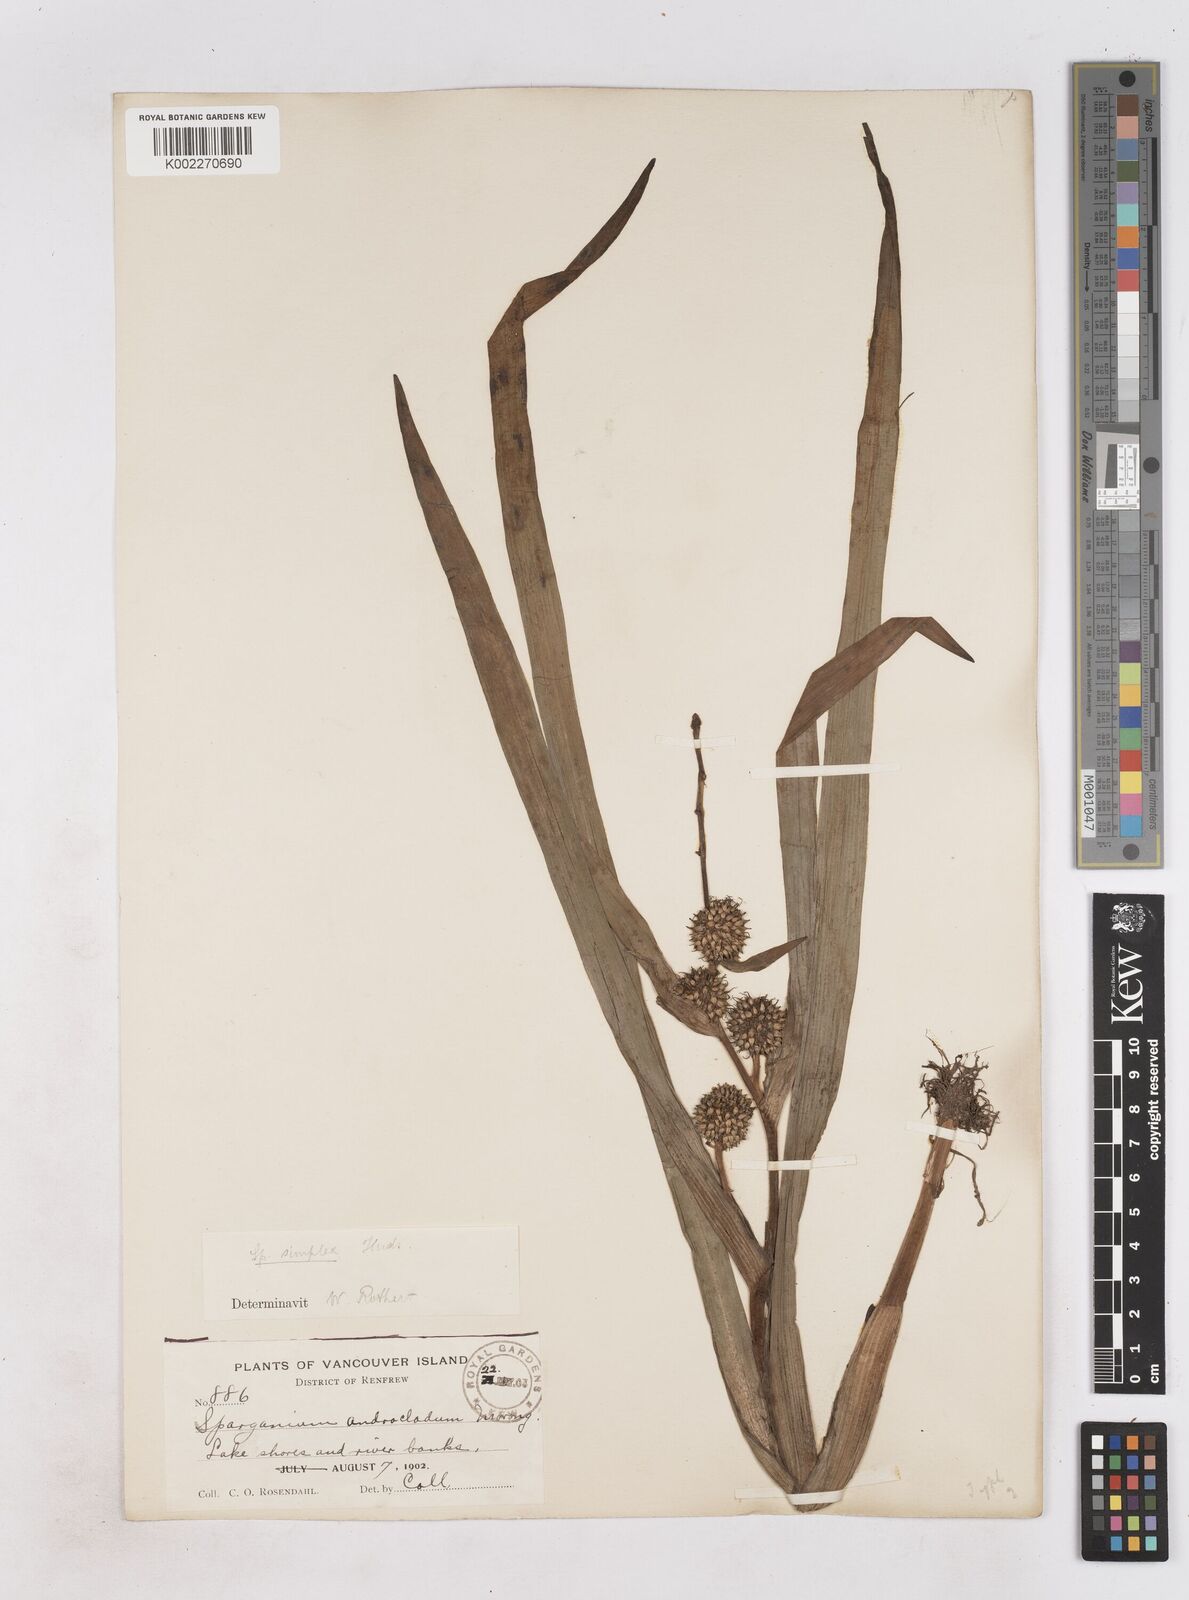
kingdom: Plantae
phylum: Tracheophyta
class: Liliopsida
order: Poales
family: Typhaceae
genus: Sparganium
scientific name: Sparganium emersum
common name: Unbranched bur-reed
